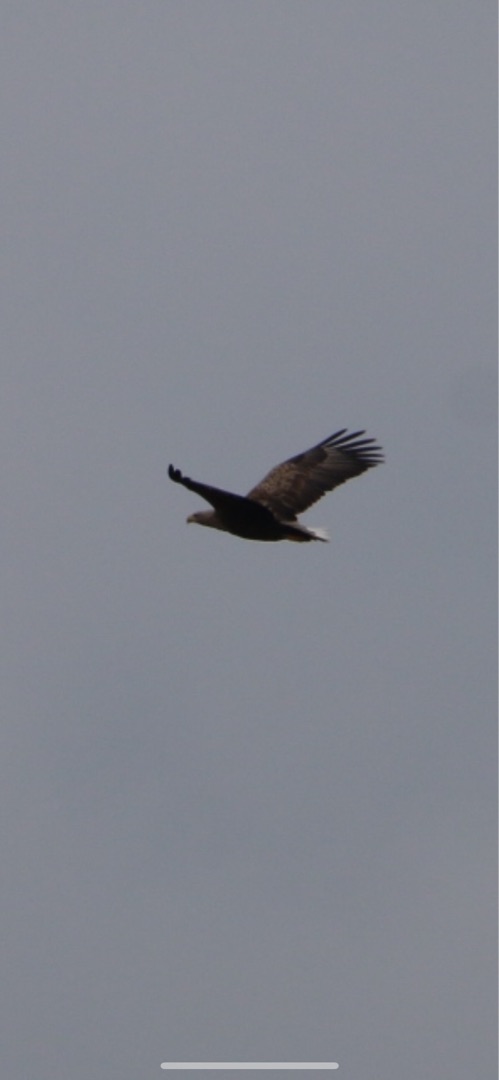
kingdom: Animalia
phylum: Chordata
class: Aves
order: Accipitriformes
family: Accipitridae
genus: Haliaeetus
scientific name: Haliaeetus albicilla
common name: Havørn
